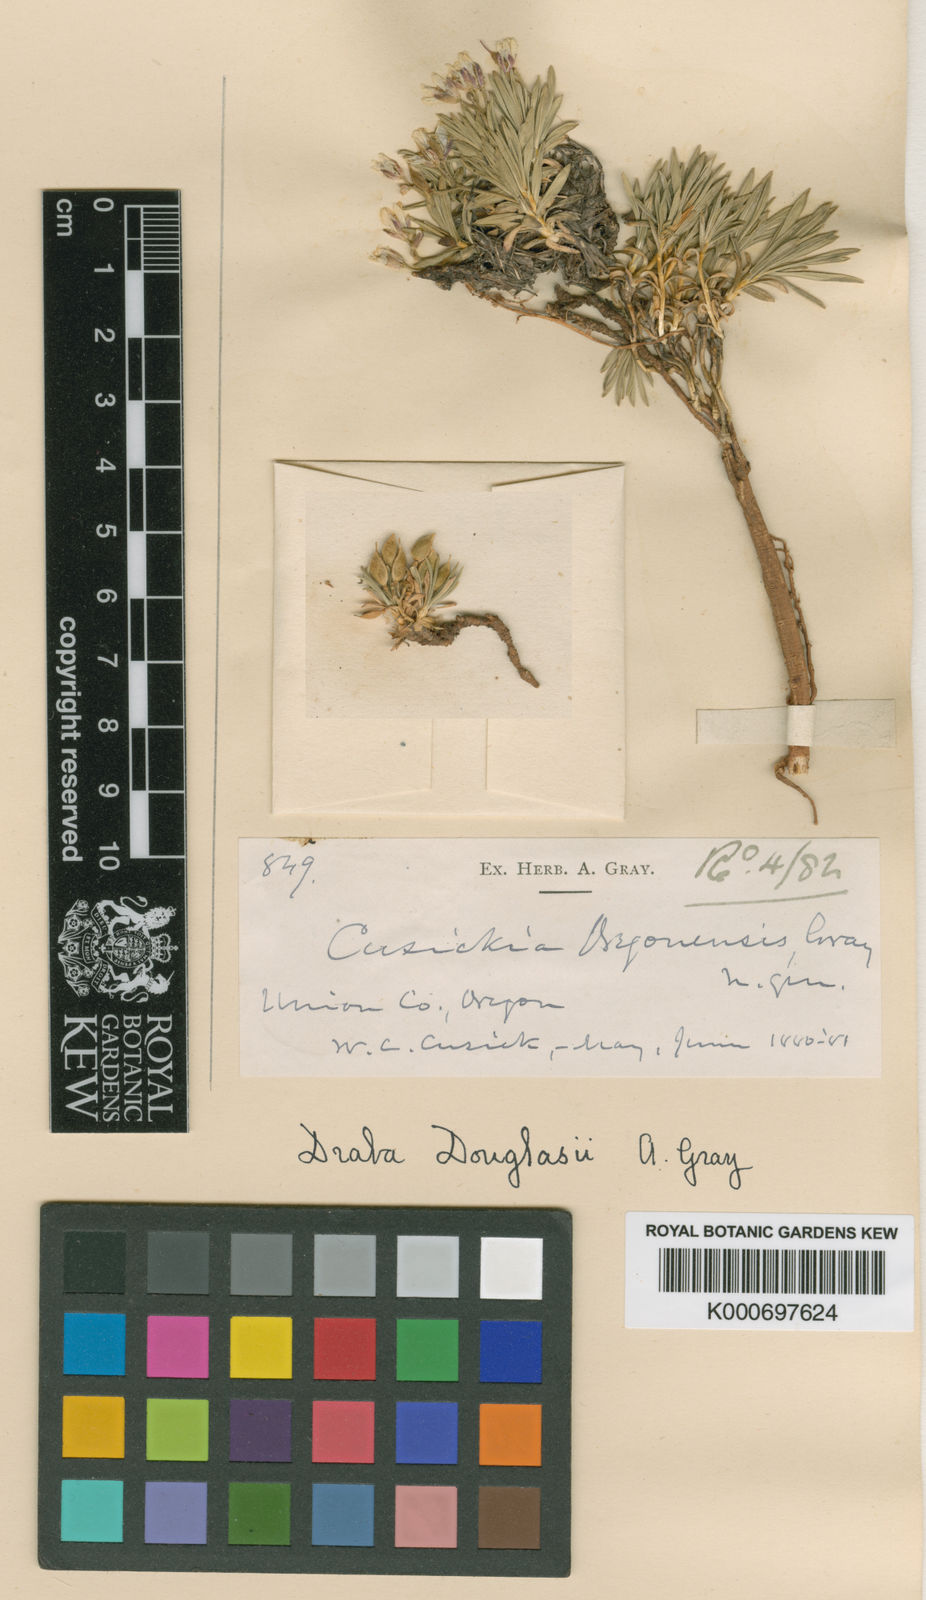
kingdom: Plantae
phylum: Tracheophyta
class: Magnoliopsida
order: Brassicales
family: Brassicaceae
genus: Cusickiella
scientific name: Cusickiella douglasii
